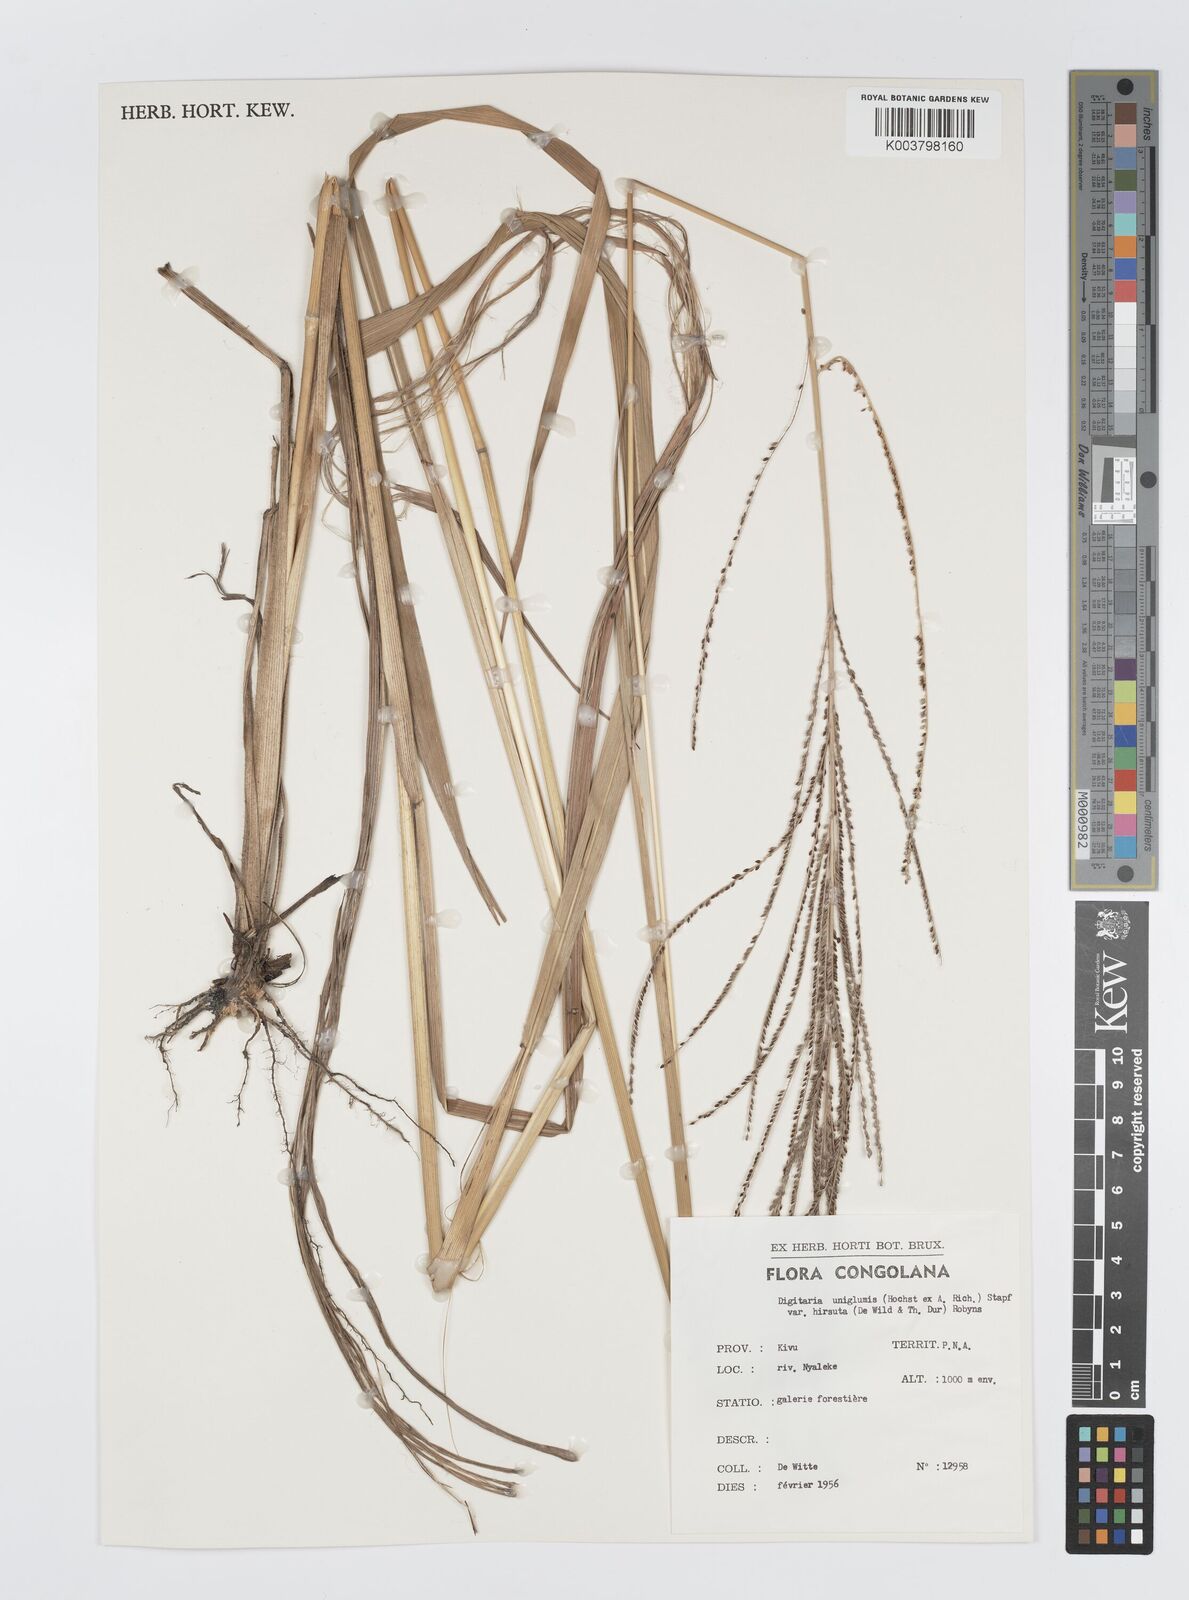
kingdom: Plantae
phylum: Tracheophyta
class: Liliopsida
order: Poales
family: Poaceae
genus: Digitaria
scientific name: Digitaria diagonalis
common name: Brown-seed finger grass
